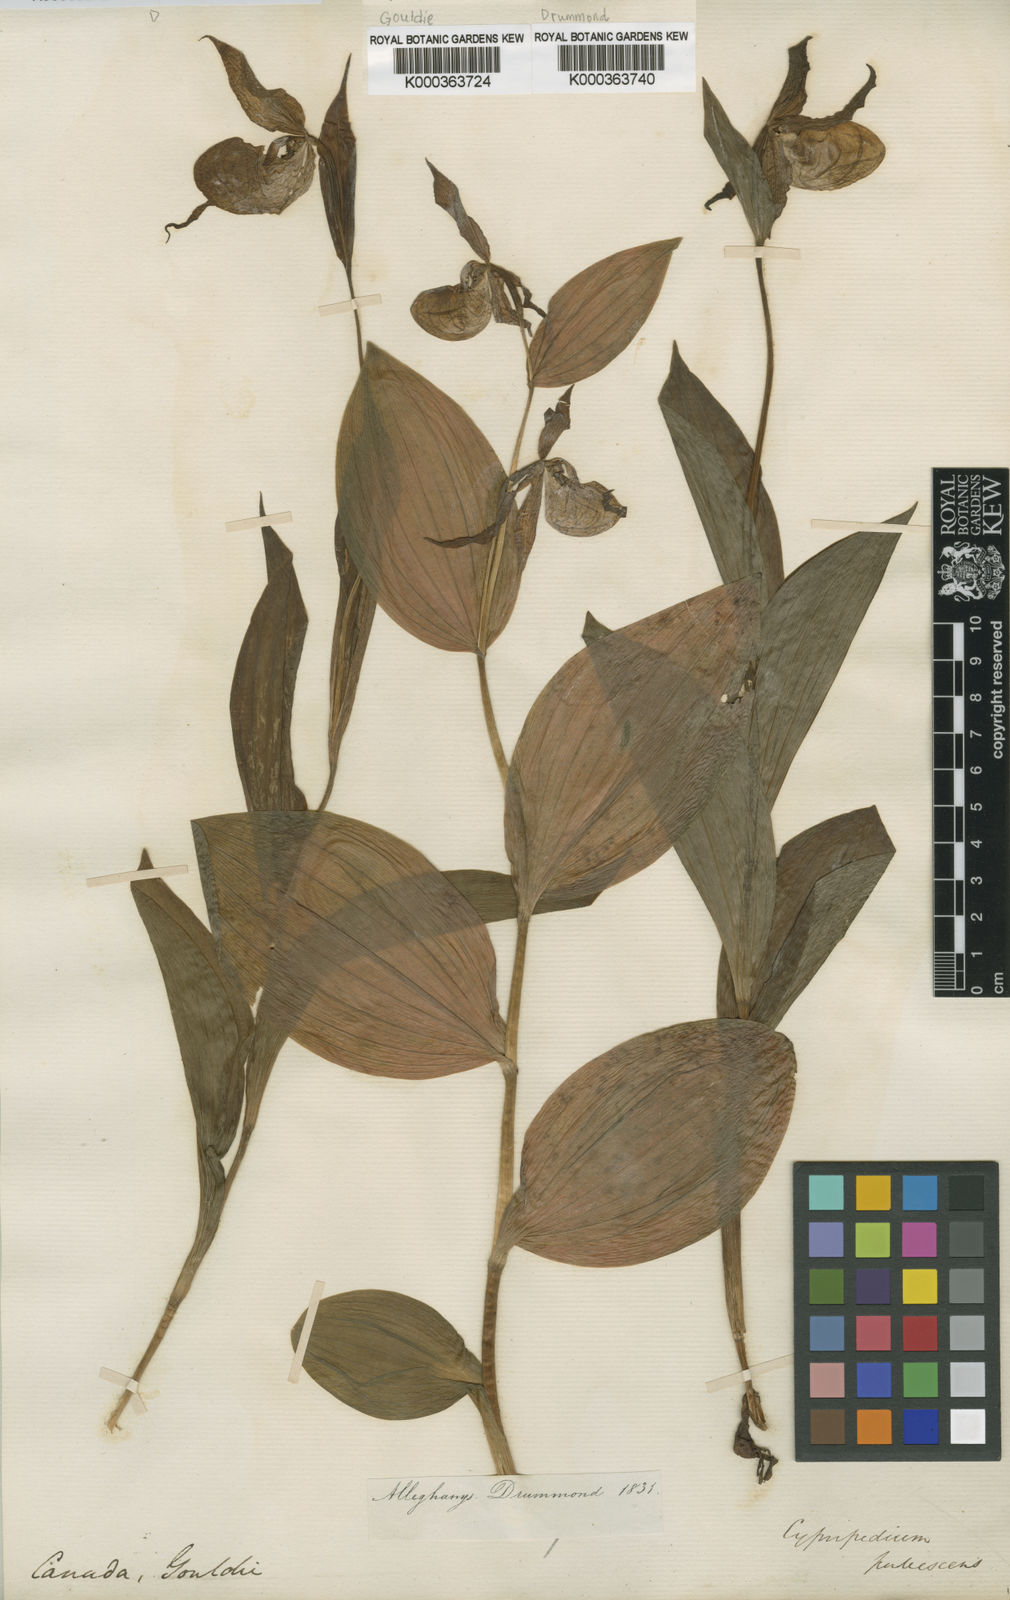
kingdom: Plantae
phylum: Tracheophyta
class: Liliopsida
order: Asparagales
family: Orchidaceae
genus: Cypripedium
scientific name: Cypripedium parviflorum
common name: American yellow lady's-slipper
